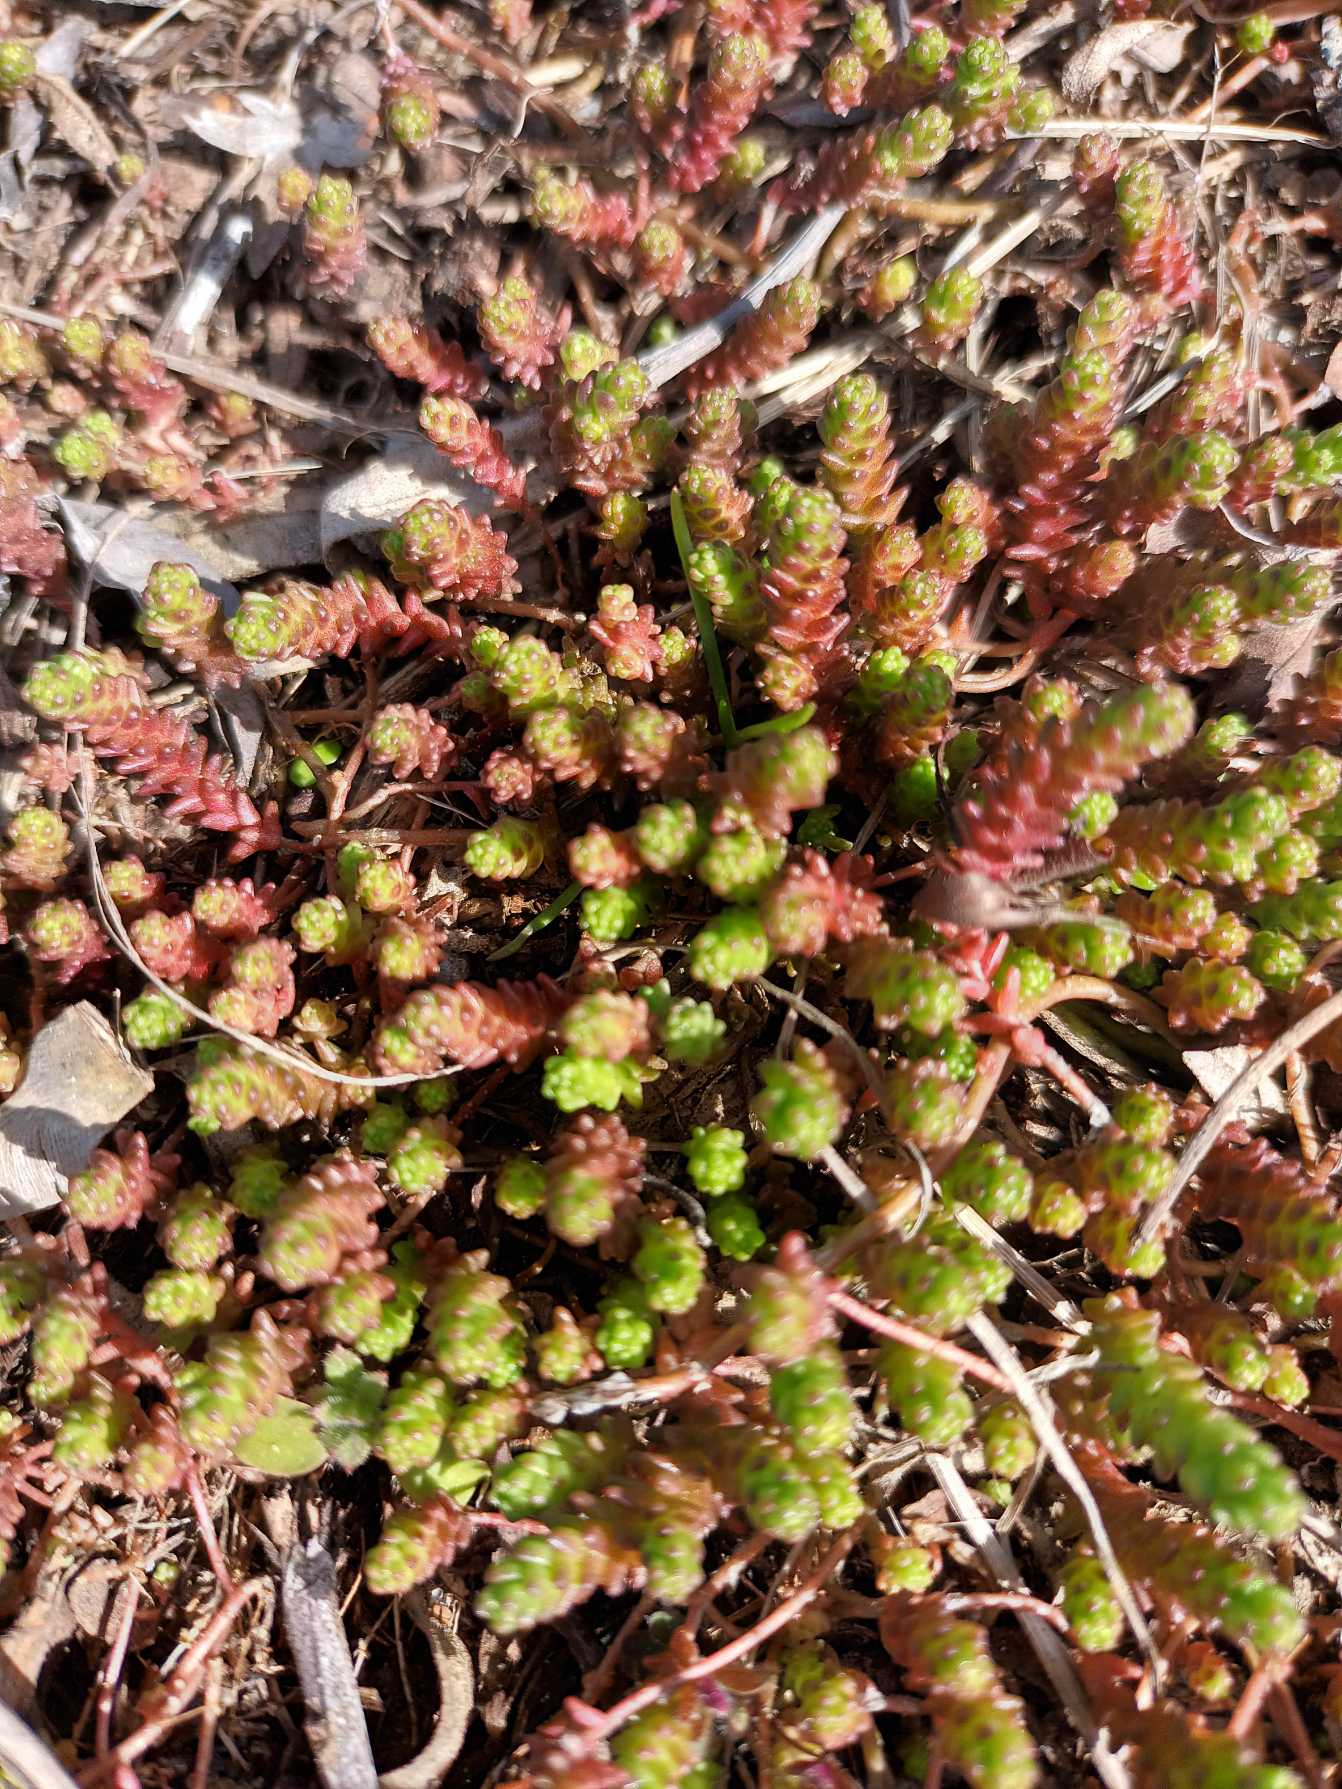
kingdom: Plantae
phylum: Tracheophyta
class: Magnoliopsida
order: Saxifragales
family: Crassulaceae
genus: Sedum
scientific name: Sedum acre
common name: Bidende stenurt
